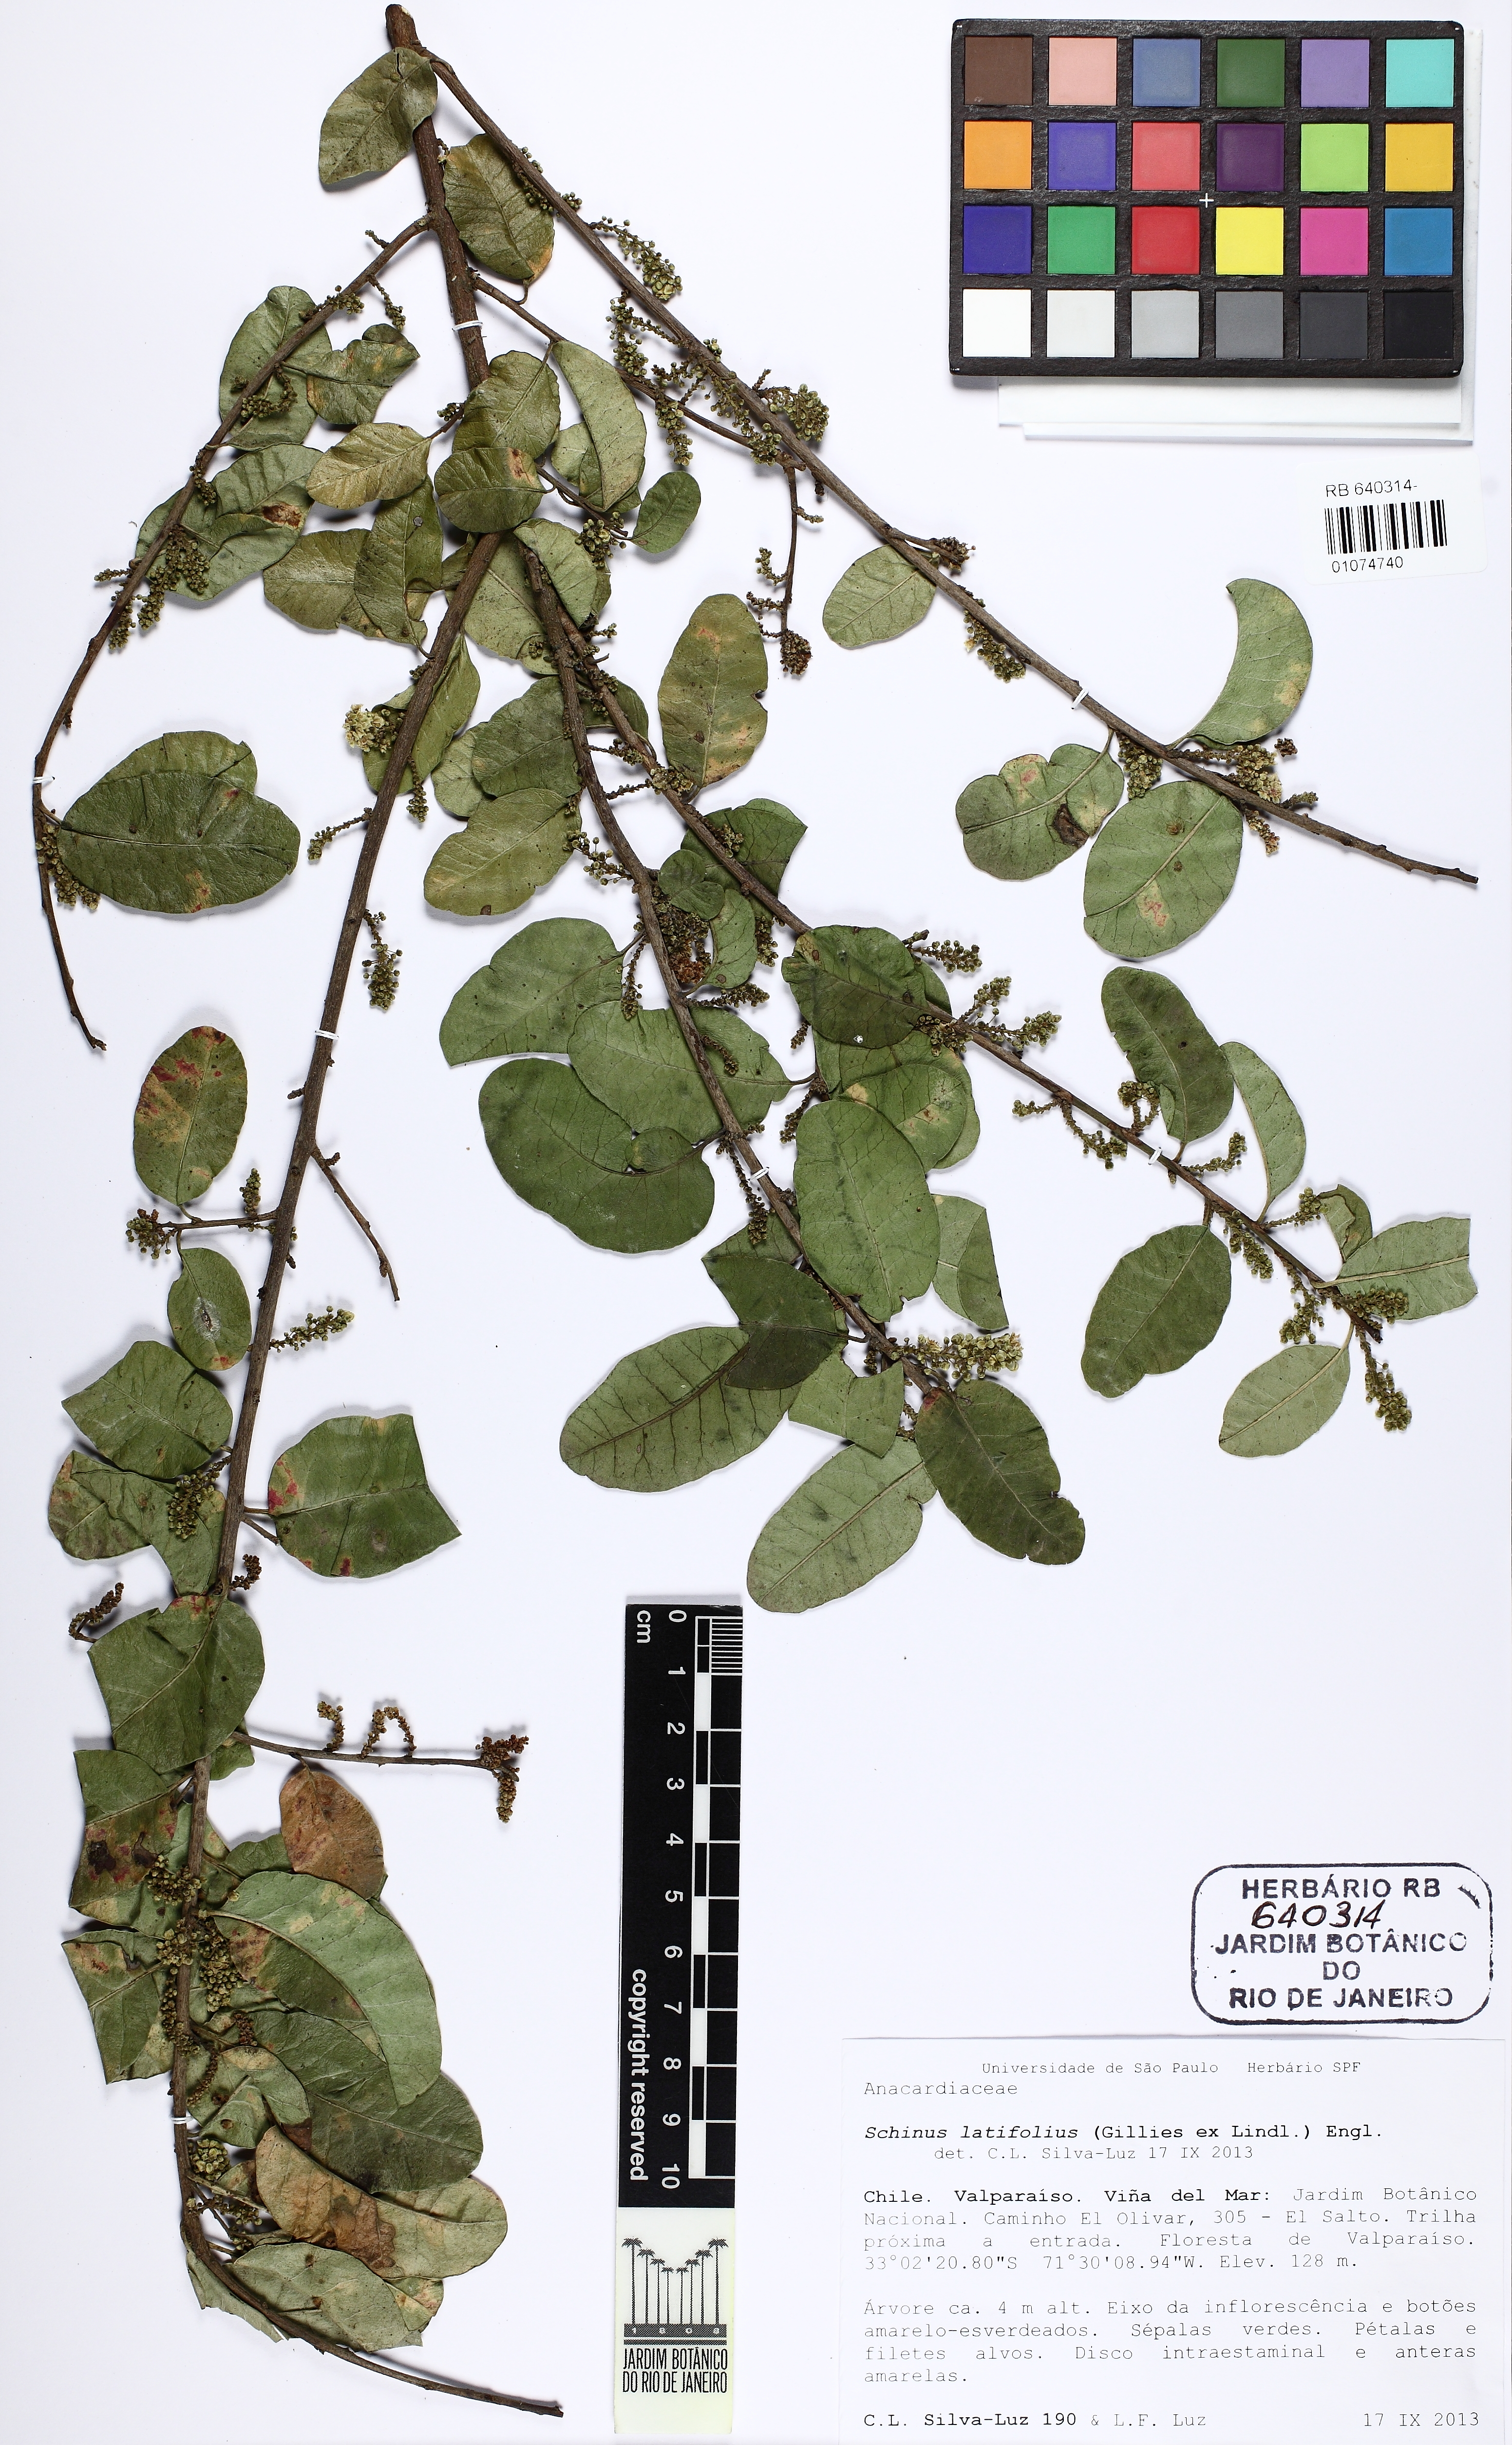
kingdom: Plantae
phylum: Tracheophyta
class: Magnoliopsida
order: Sapindales
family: Anacardiaceae
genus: Schinus
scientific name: Schinus latifolia
